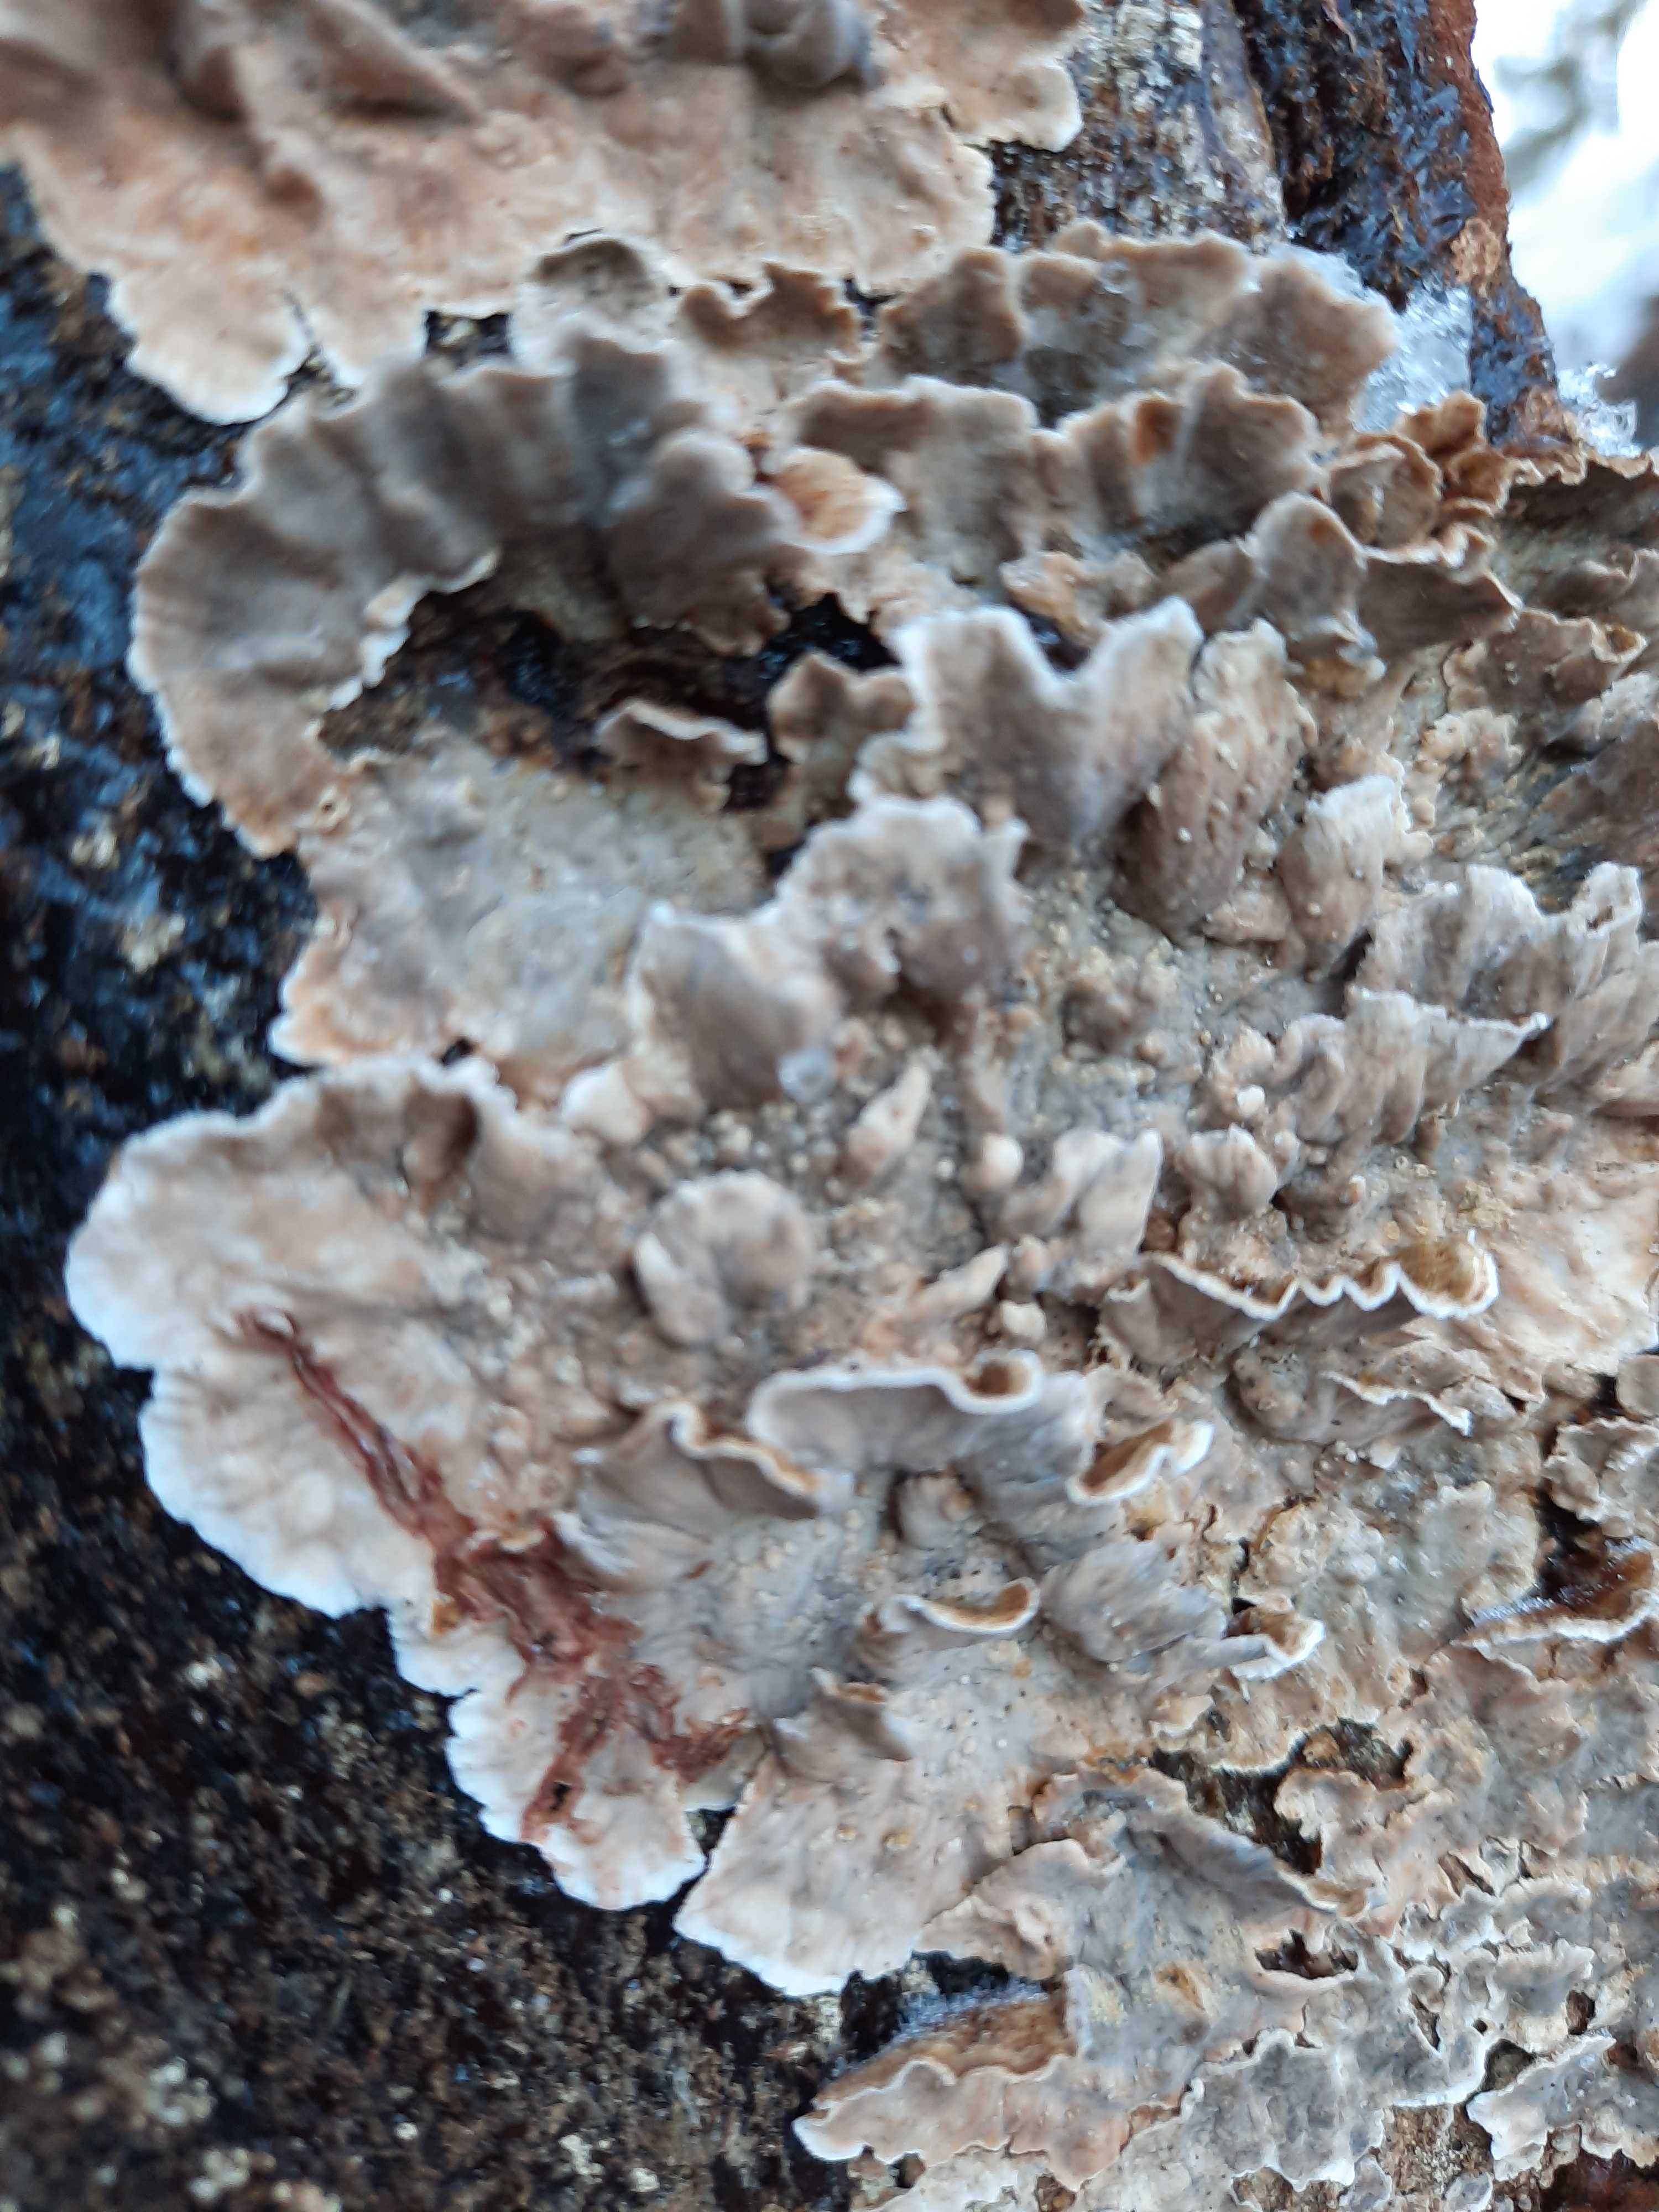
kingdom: Fungi
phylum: Basidiomycota
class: Agaricomycetes
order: Russulales
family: Stereaceae
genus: Stereum
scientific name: Stereum sanguinolentum
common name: blødende lædersvamp
